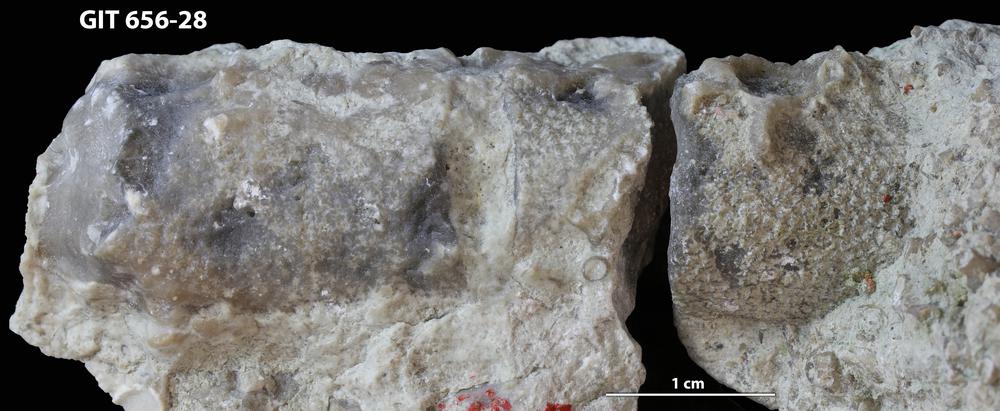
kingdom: Animalia
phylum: Cnidaria
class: Anthozoa
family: Theciidae
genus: Laceripora
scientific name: Laceripora
